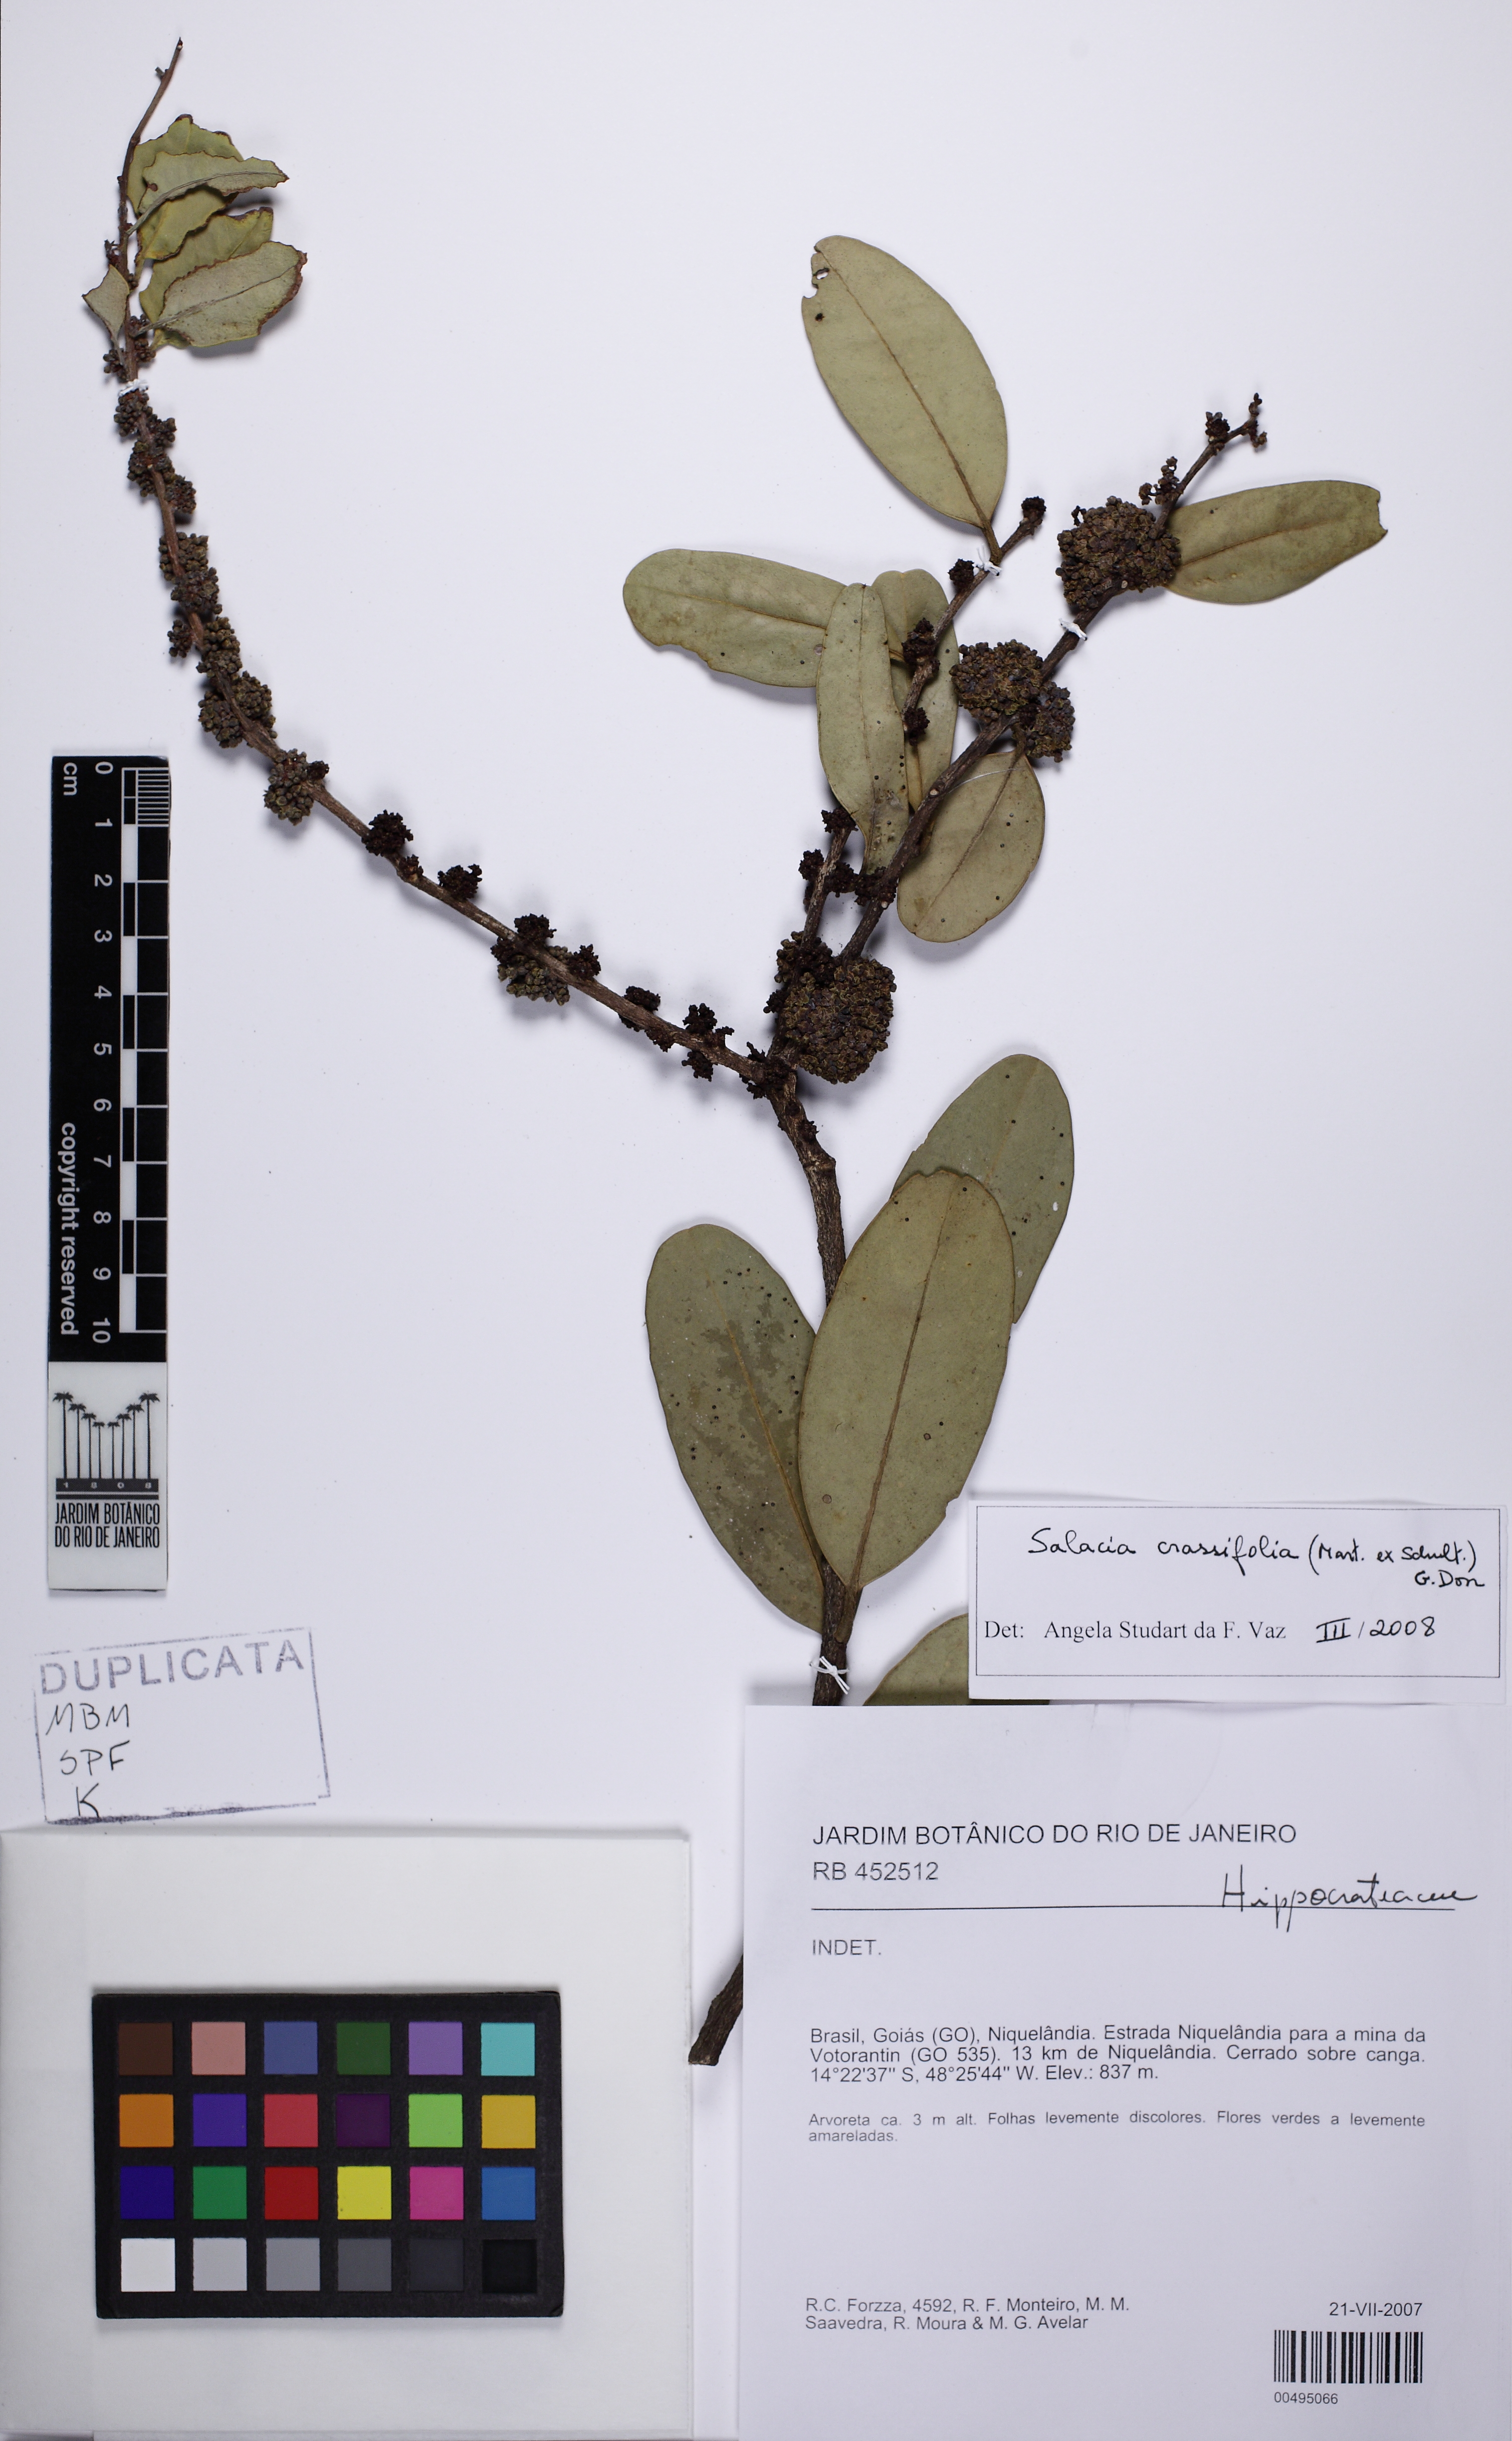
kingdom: Plantae
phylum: Tracheophyta
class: Magnoliopsida
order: Celastrales
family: Celastraceae
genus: Salacia
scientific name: Salacia crassifolia
